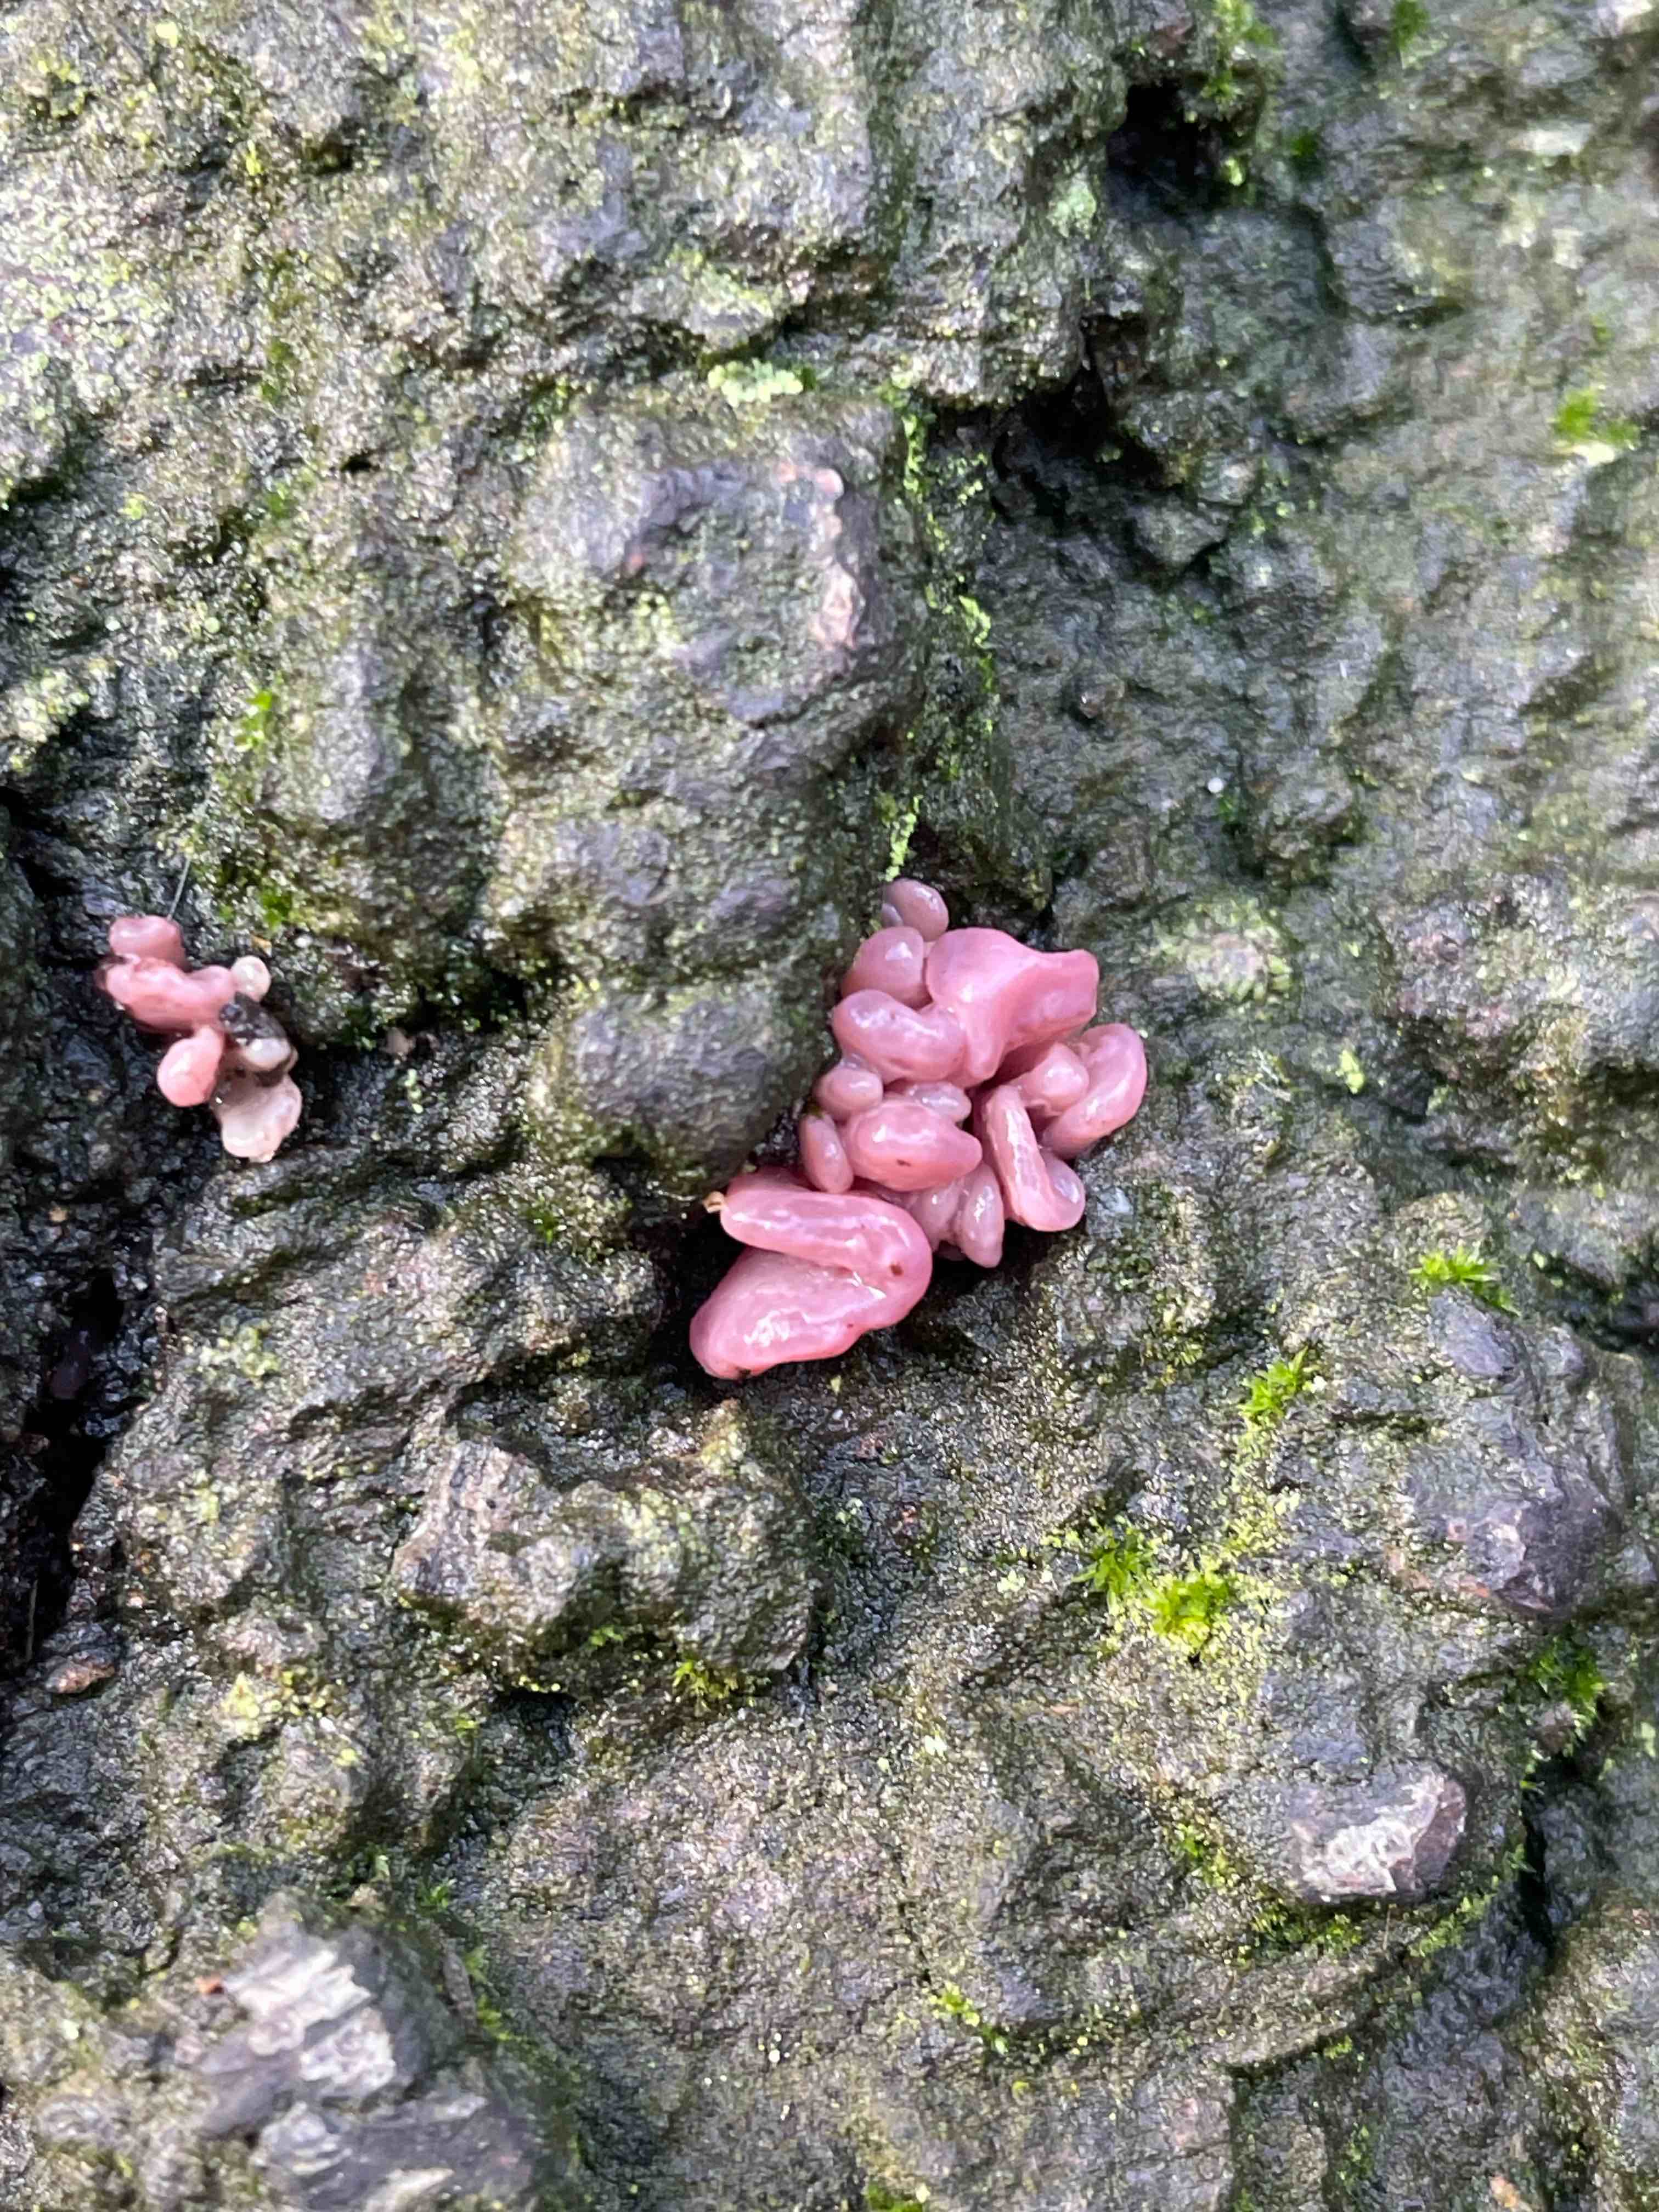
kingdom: Fungi
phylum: Ascomycota
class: Leotiomycetes
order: Helotiales
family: Gelatinodiscaceae
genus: Ascocoryne
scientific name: Ascocoryne sarcoides
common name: rødlilla sejskive
